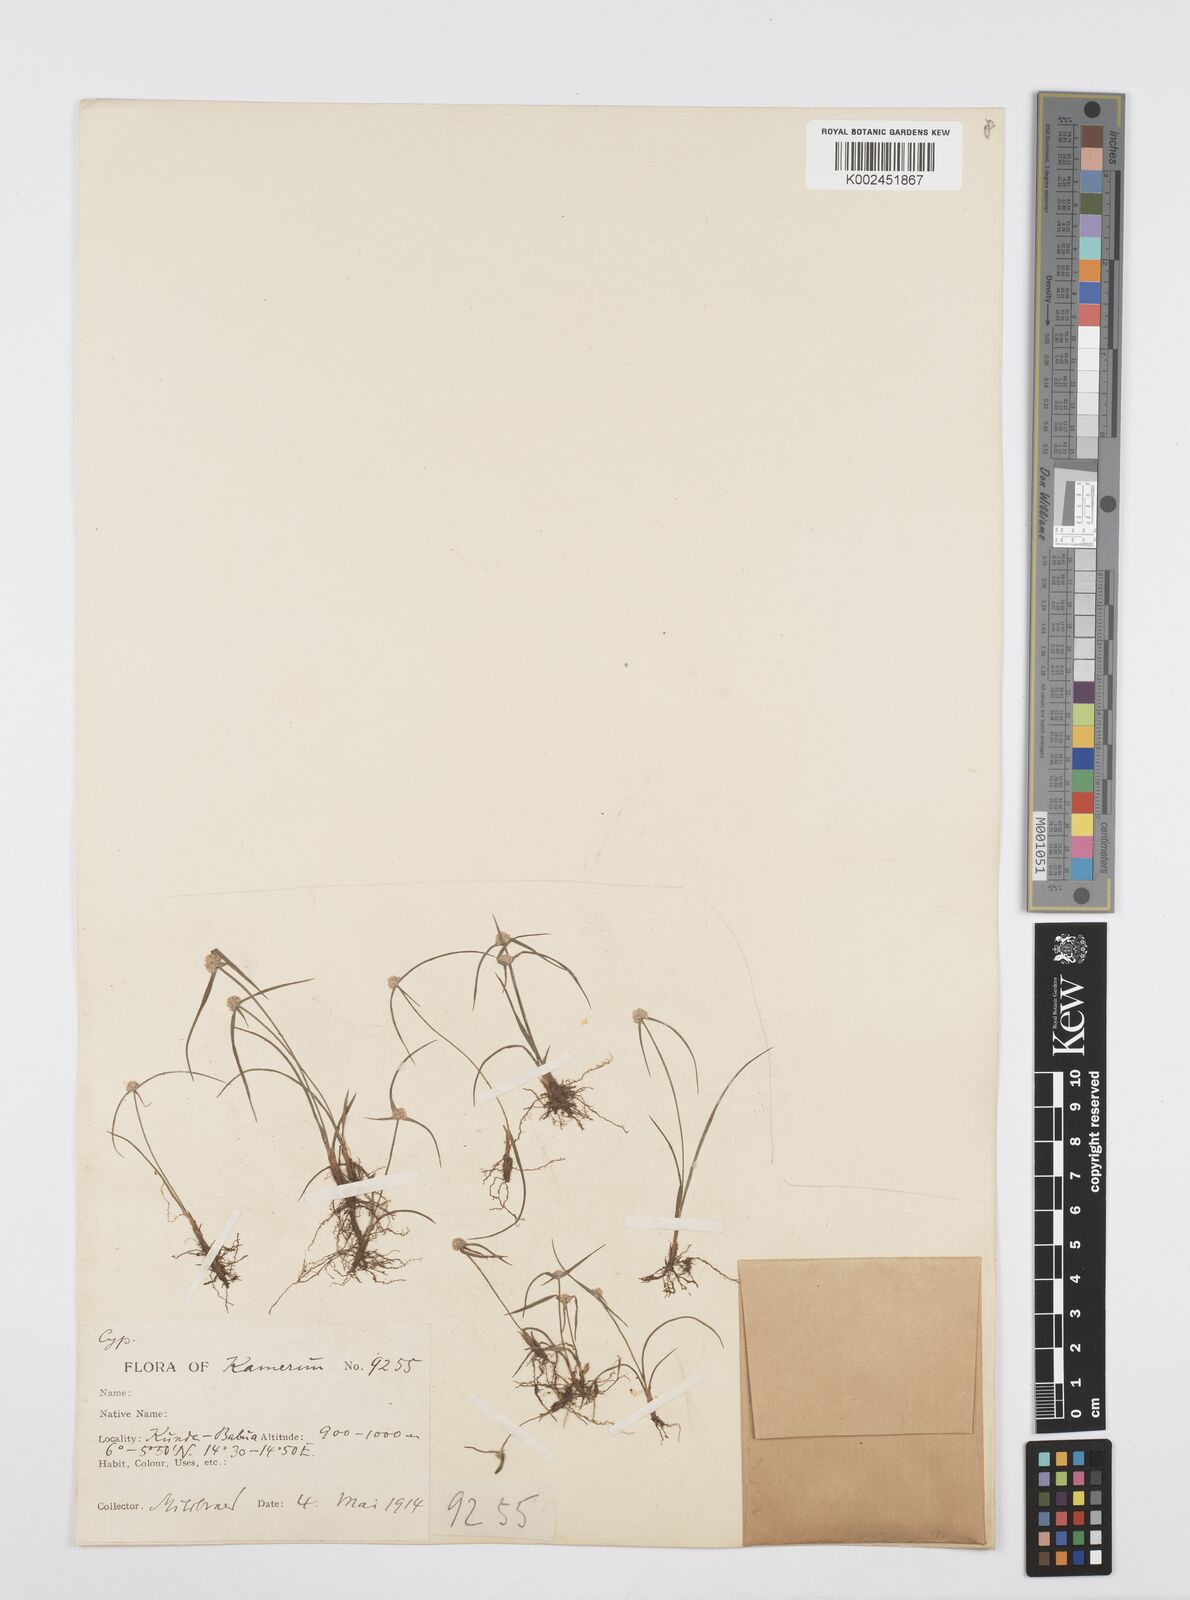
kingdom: Plantae
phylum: Tracheophyta
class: Liliopsida
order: Poales
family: Cyperaceae
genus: Cyperus
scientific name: Cyperus microcephalus
